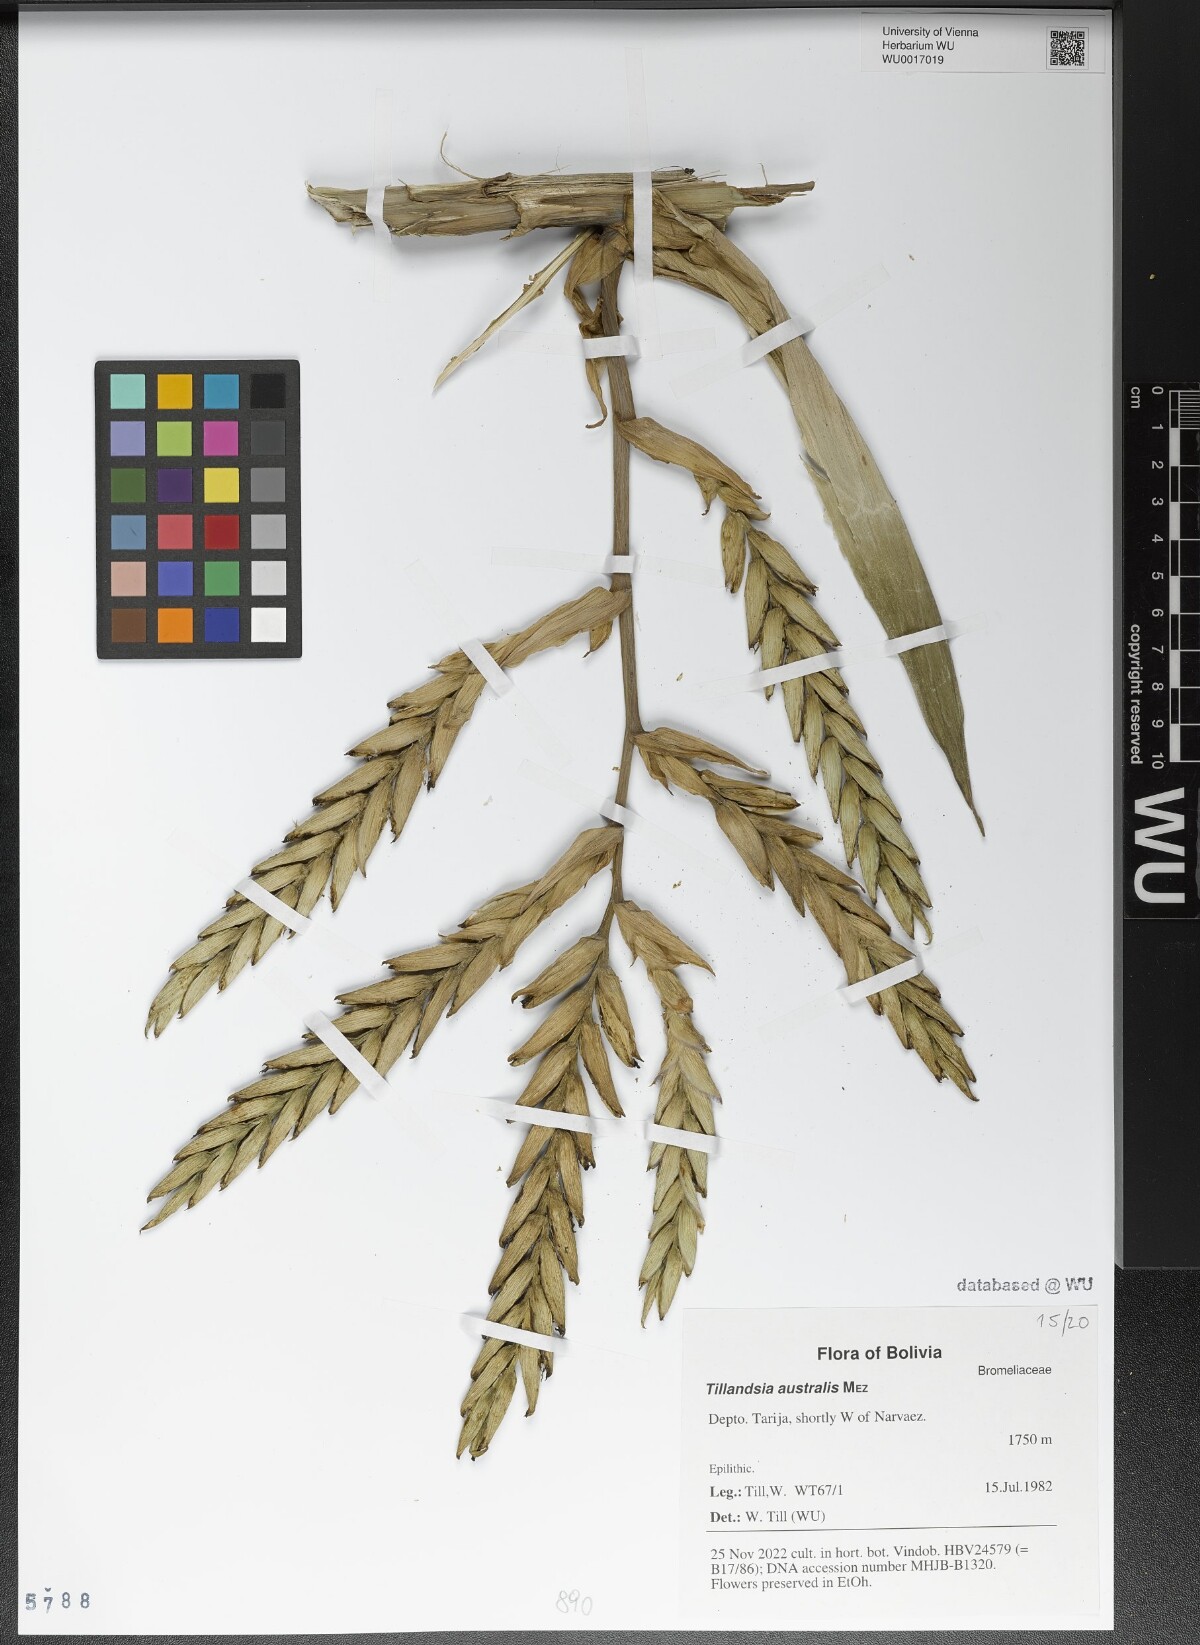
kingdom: Plantae
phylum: Tracheophyta
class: Liliopsida
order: Poales
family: Bromeliaceae
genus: Tillandsia
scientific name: Tillandsia australis
